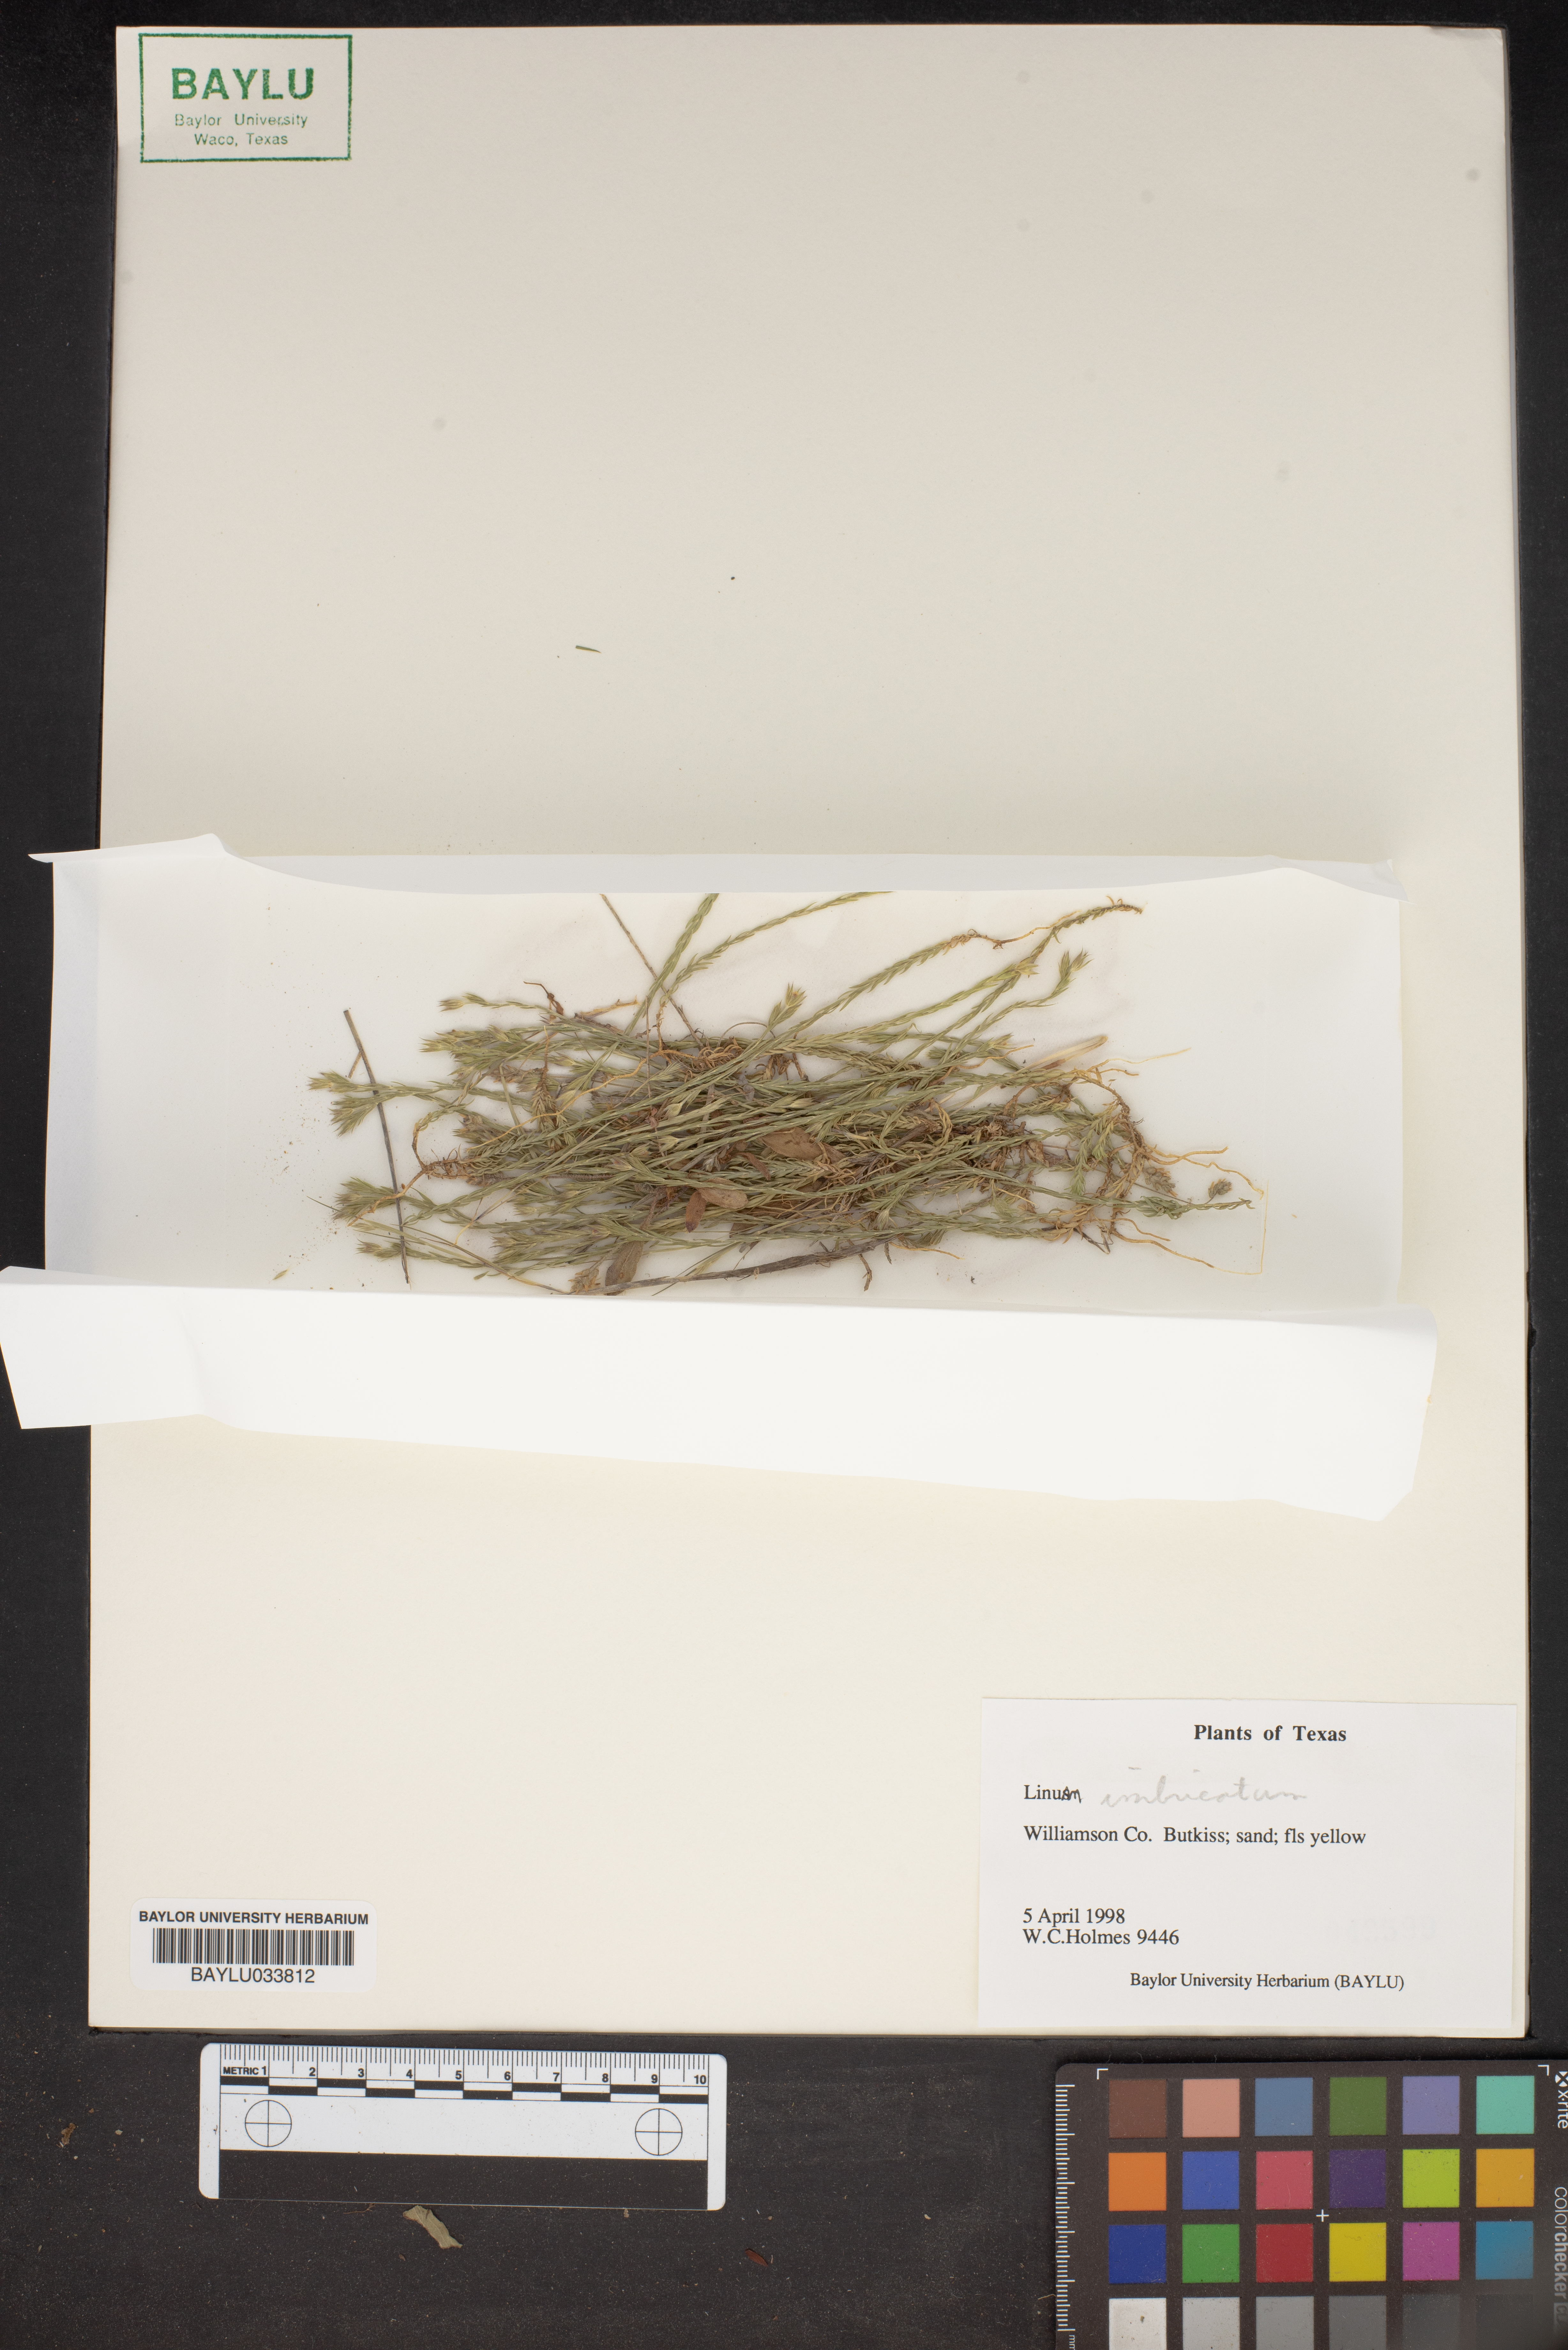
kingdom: Plantae
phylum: Tracheophyta
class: Magnoliopsida
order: Malpighiales
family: Linaceae
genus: Linum
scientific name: Linum imbricatum
